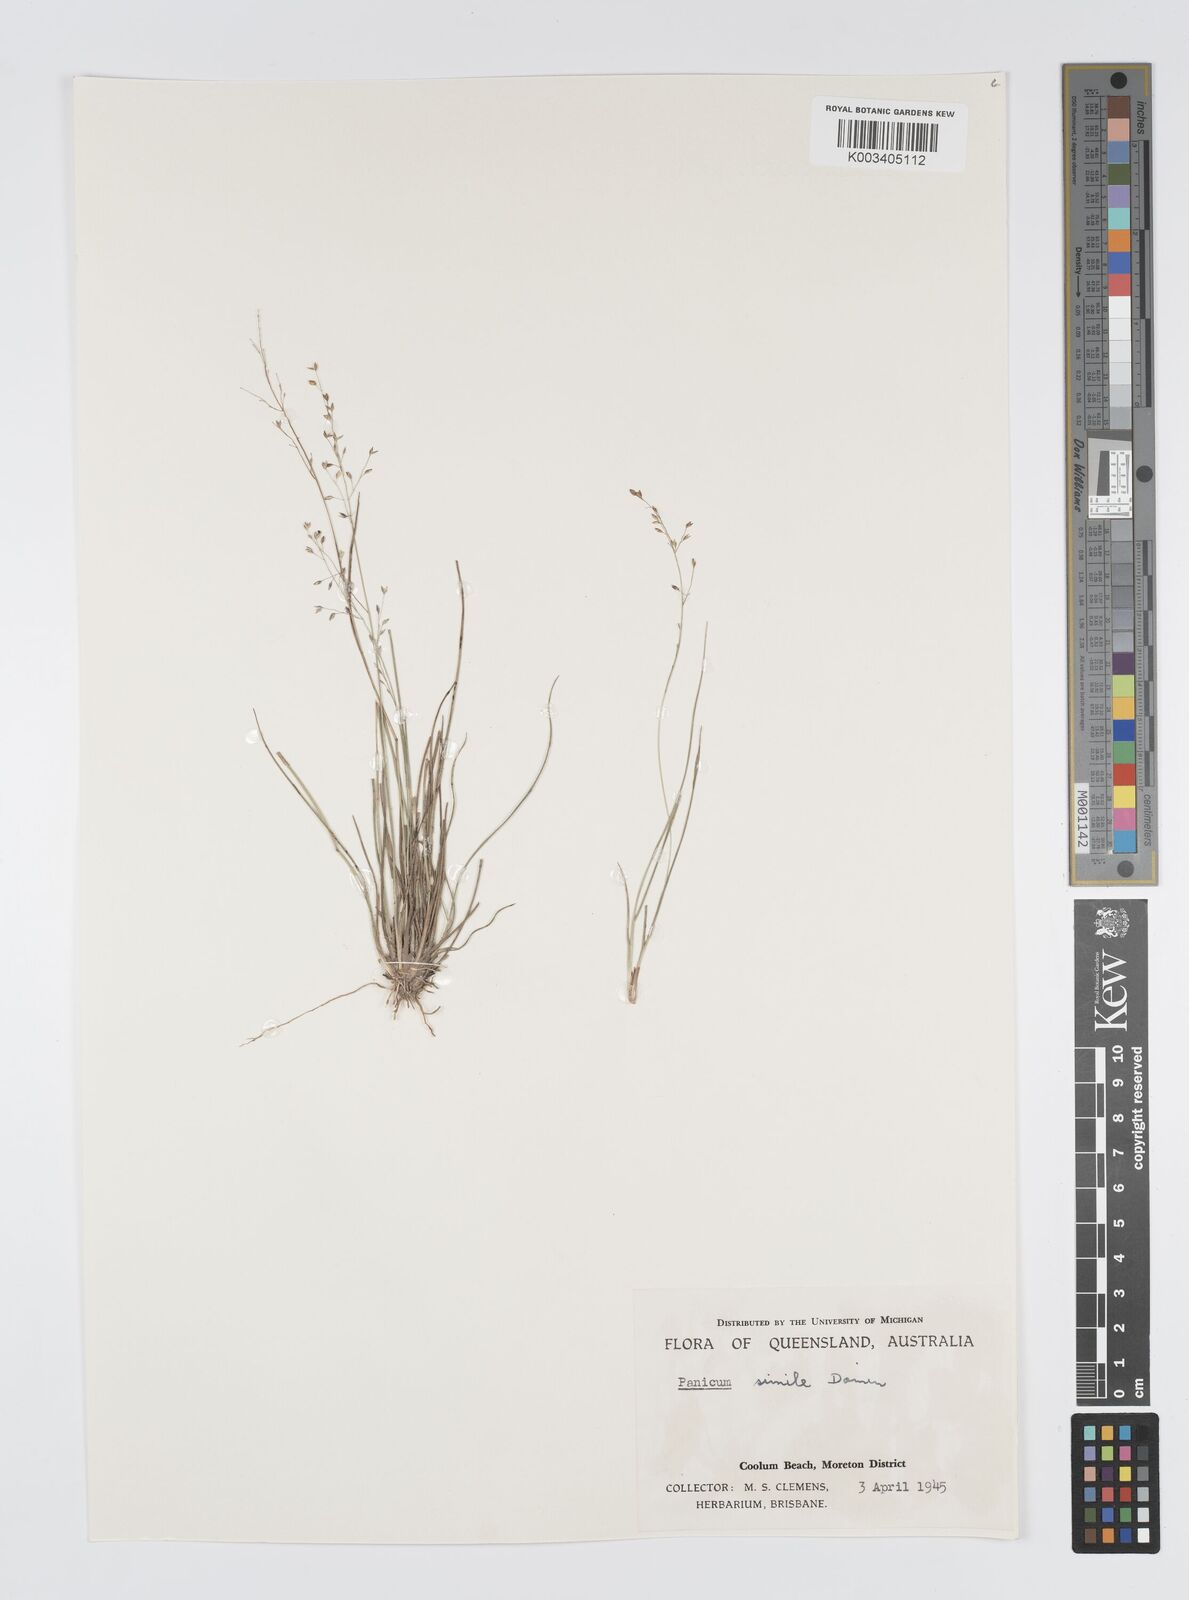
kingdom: Plantae
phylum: Tracheophyta
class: Liliopsida
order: Poales
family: Poaceae
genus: Panicum
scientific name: Panicum simile
